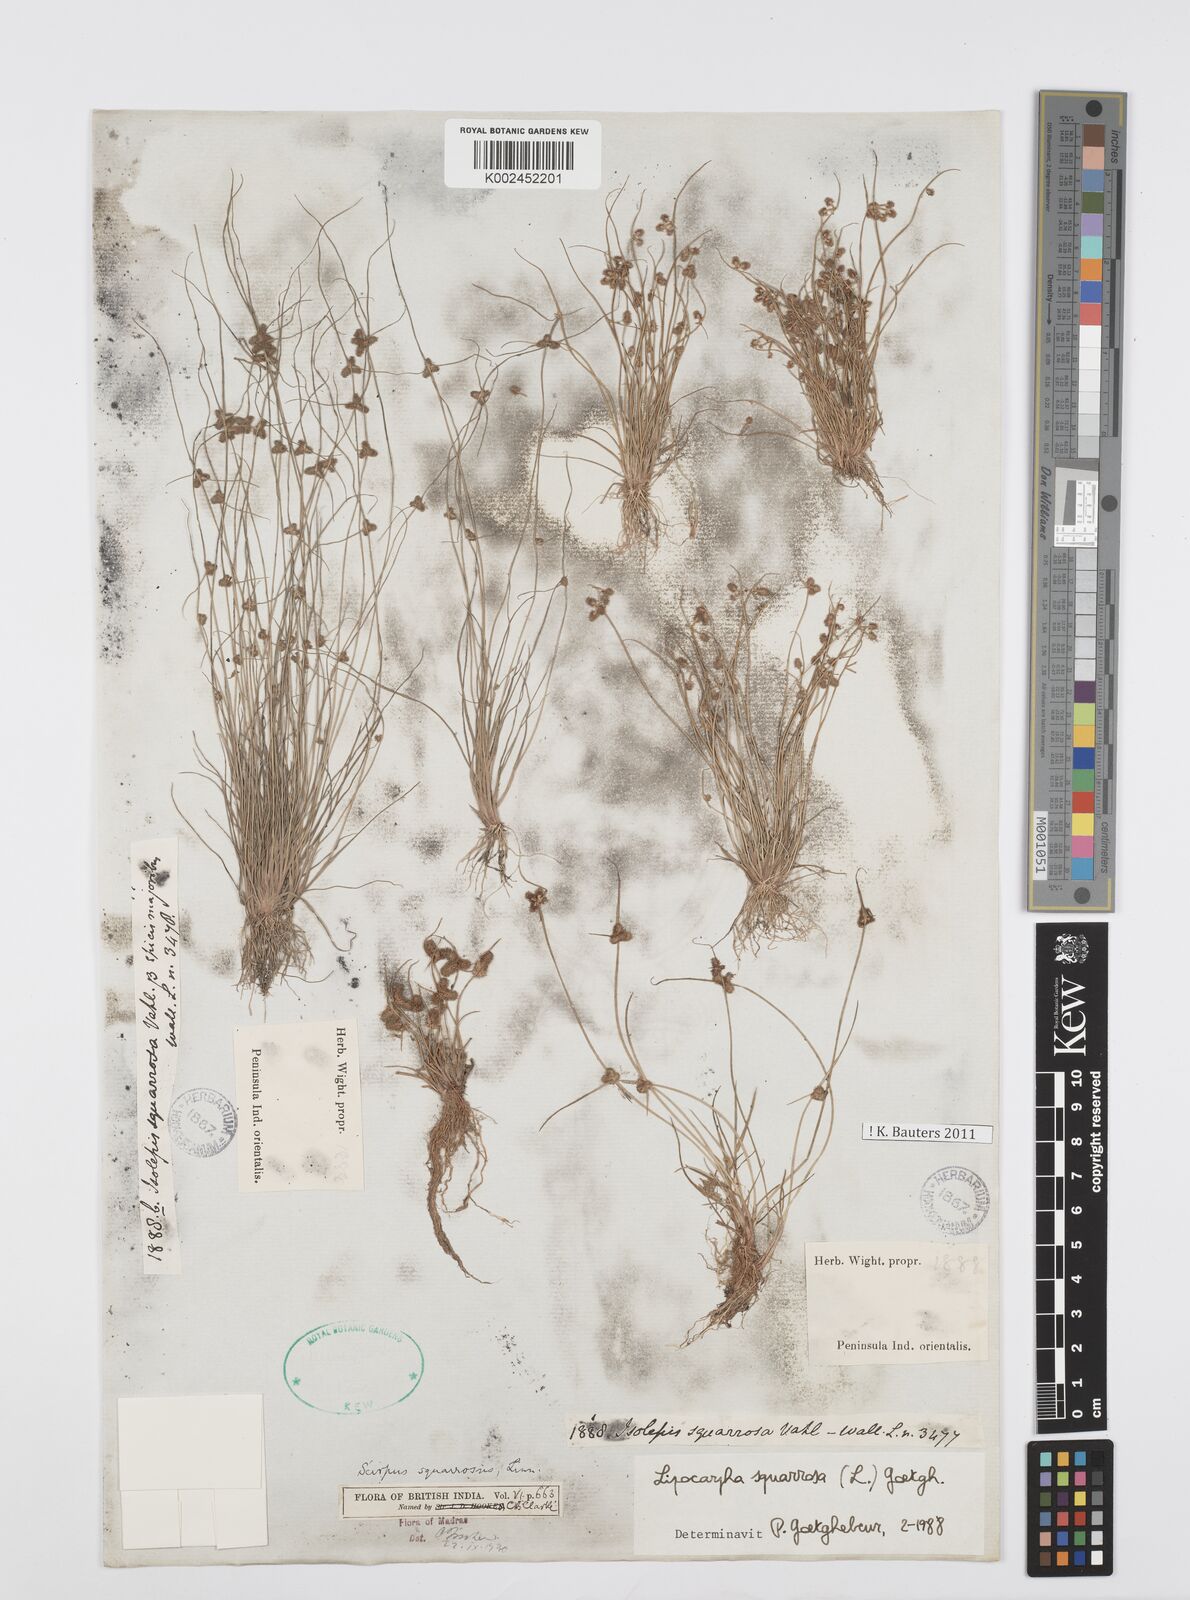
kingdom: Plantae
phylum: Tracheophyta
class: Liliopsida
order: Poales
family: Cyperaceae
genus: Cyperus
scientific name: Cyperus squarrosus
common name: Awned cyperus
